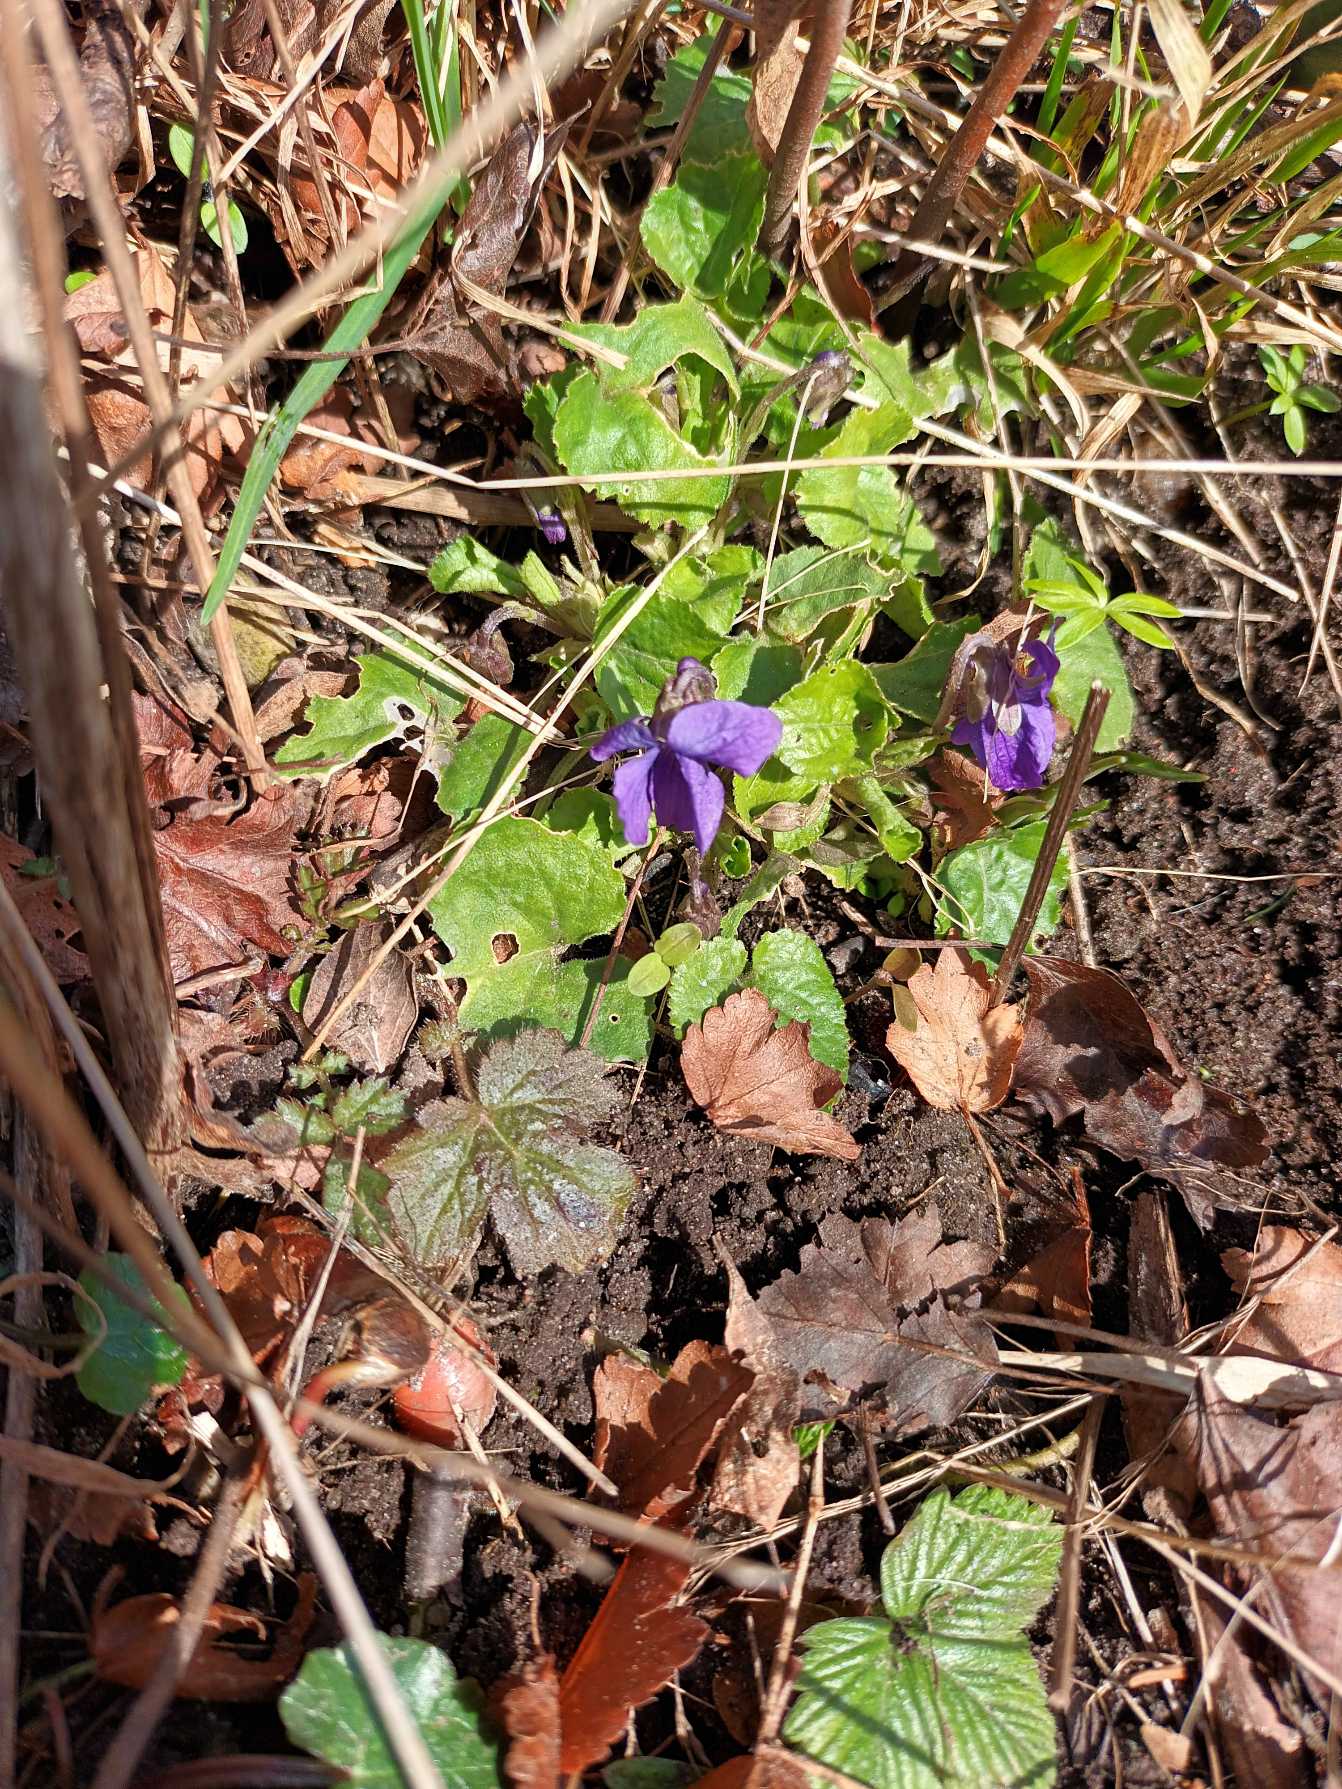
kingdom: Plantae
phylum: Tracheophyta
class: Magnoliopsida
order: Malpighiales
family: Violaceae
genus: Viola
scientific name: Viola odorata
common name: Marts-viol
